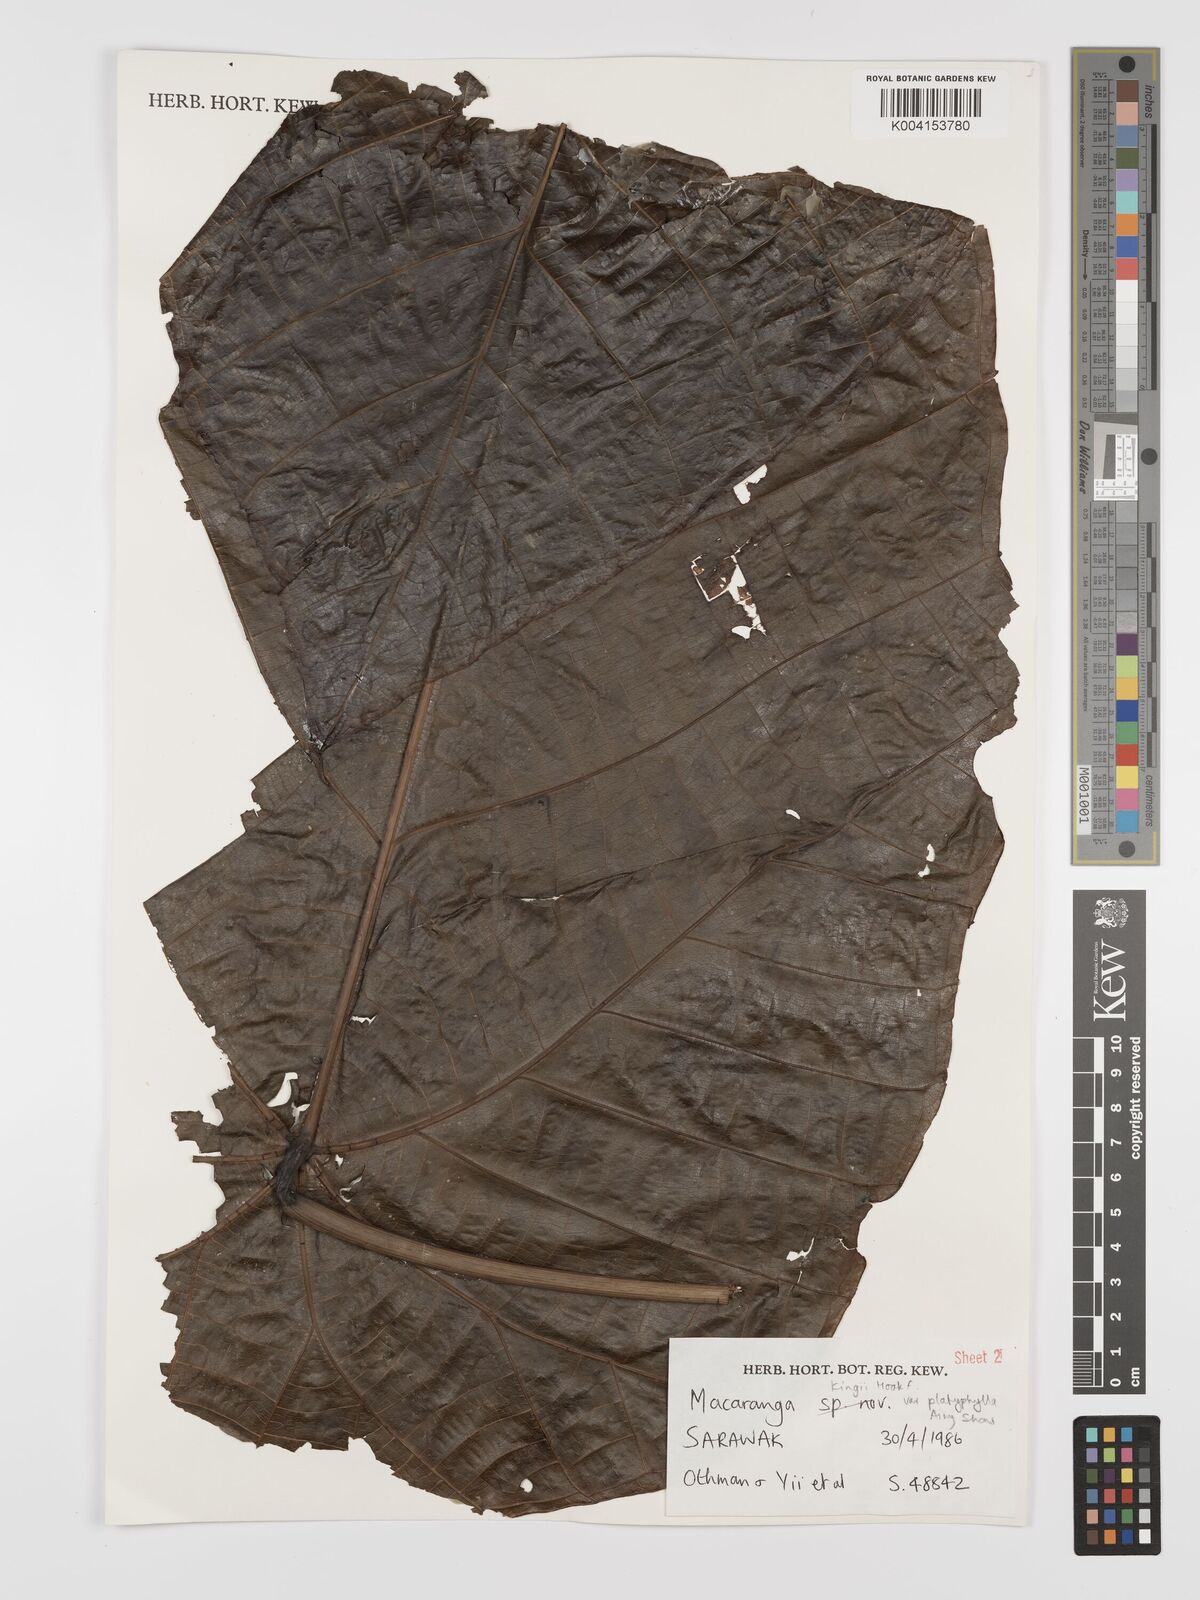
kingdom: Plantae
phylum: Tracheophyta
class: Magnoliopsida
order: Malpighiales
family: Euphorbiaceae
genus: Macaranga
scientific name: Macaranga umbrosa
